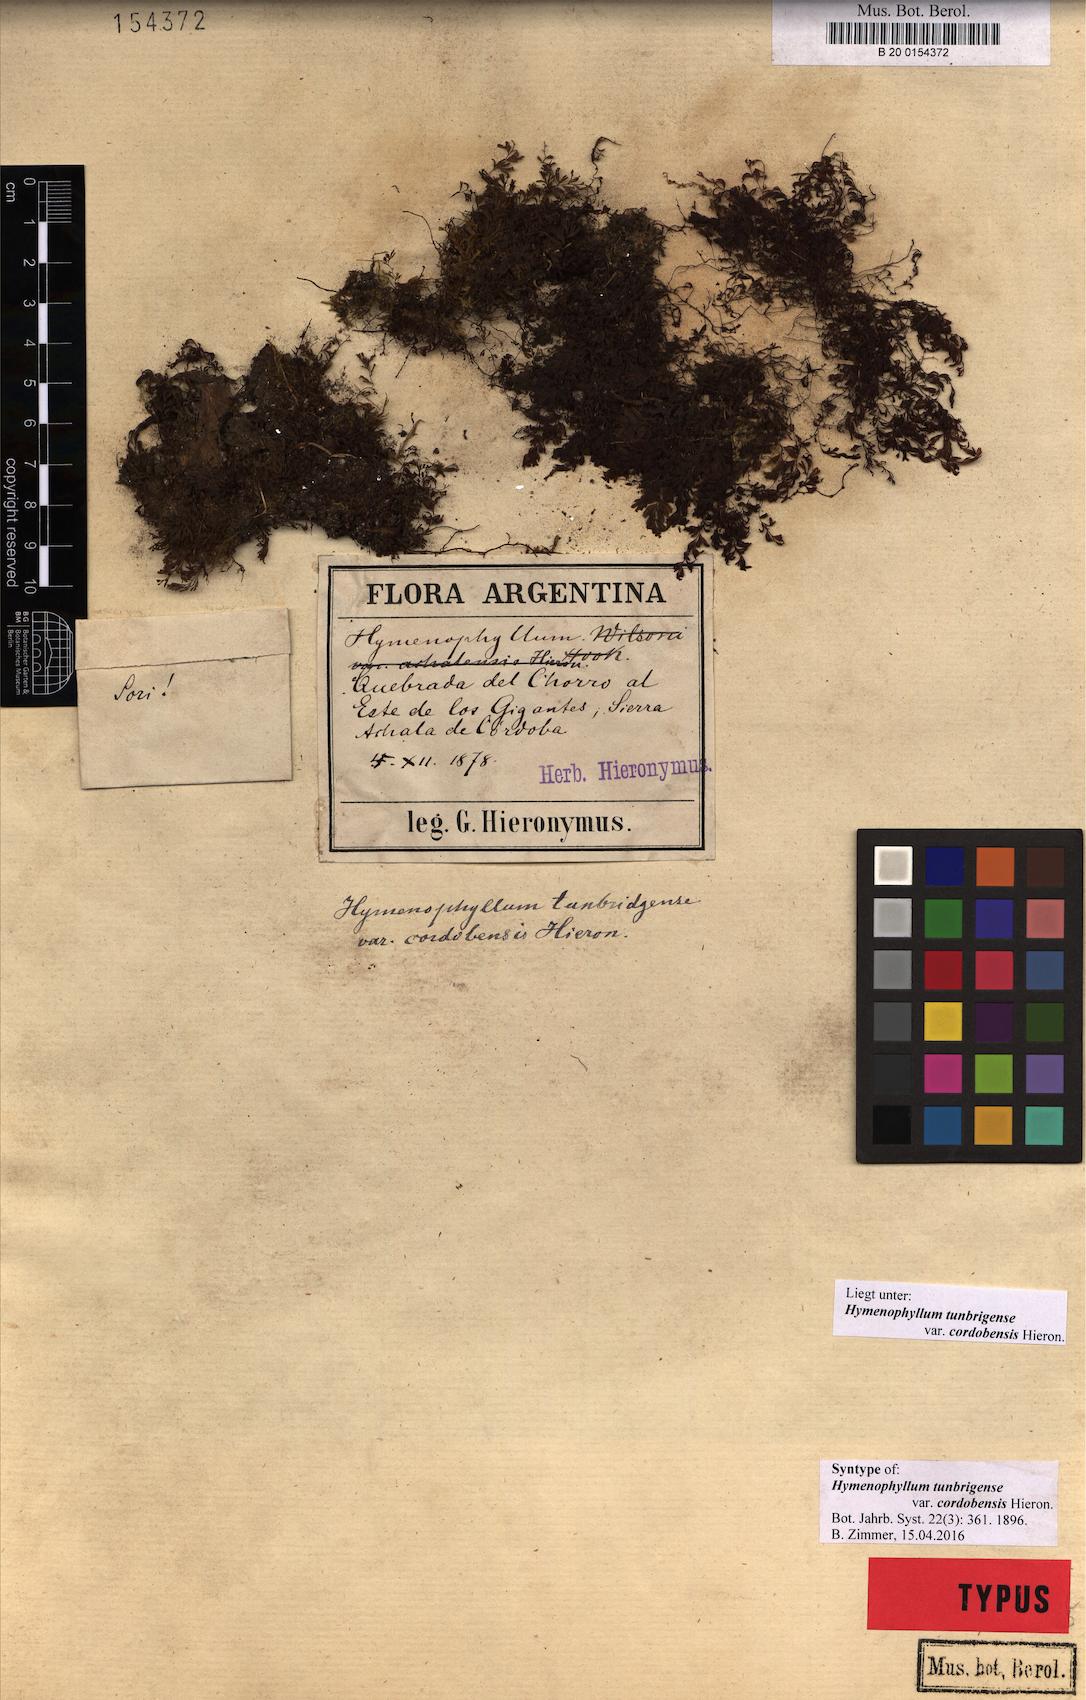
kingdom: Plantae
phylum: Tracheophyta
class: Polypodiopsida
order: Hymenophyllales
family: Hymenophyllaceae
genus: Hymenophyllum
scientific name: Hymenophyllum cordobense
